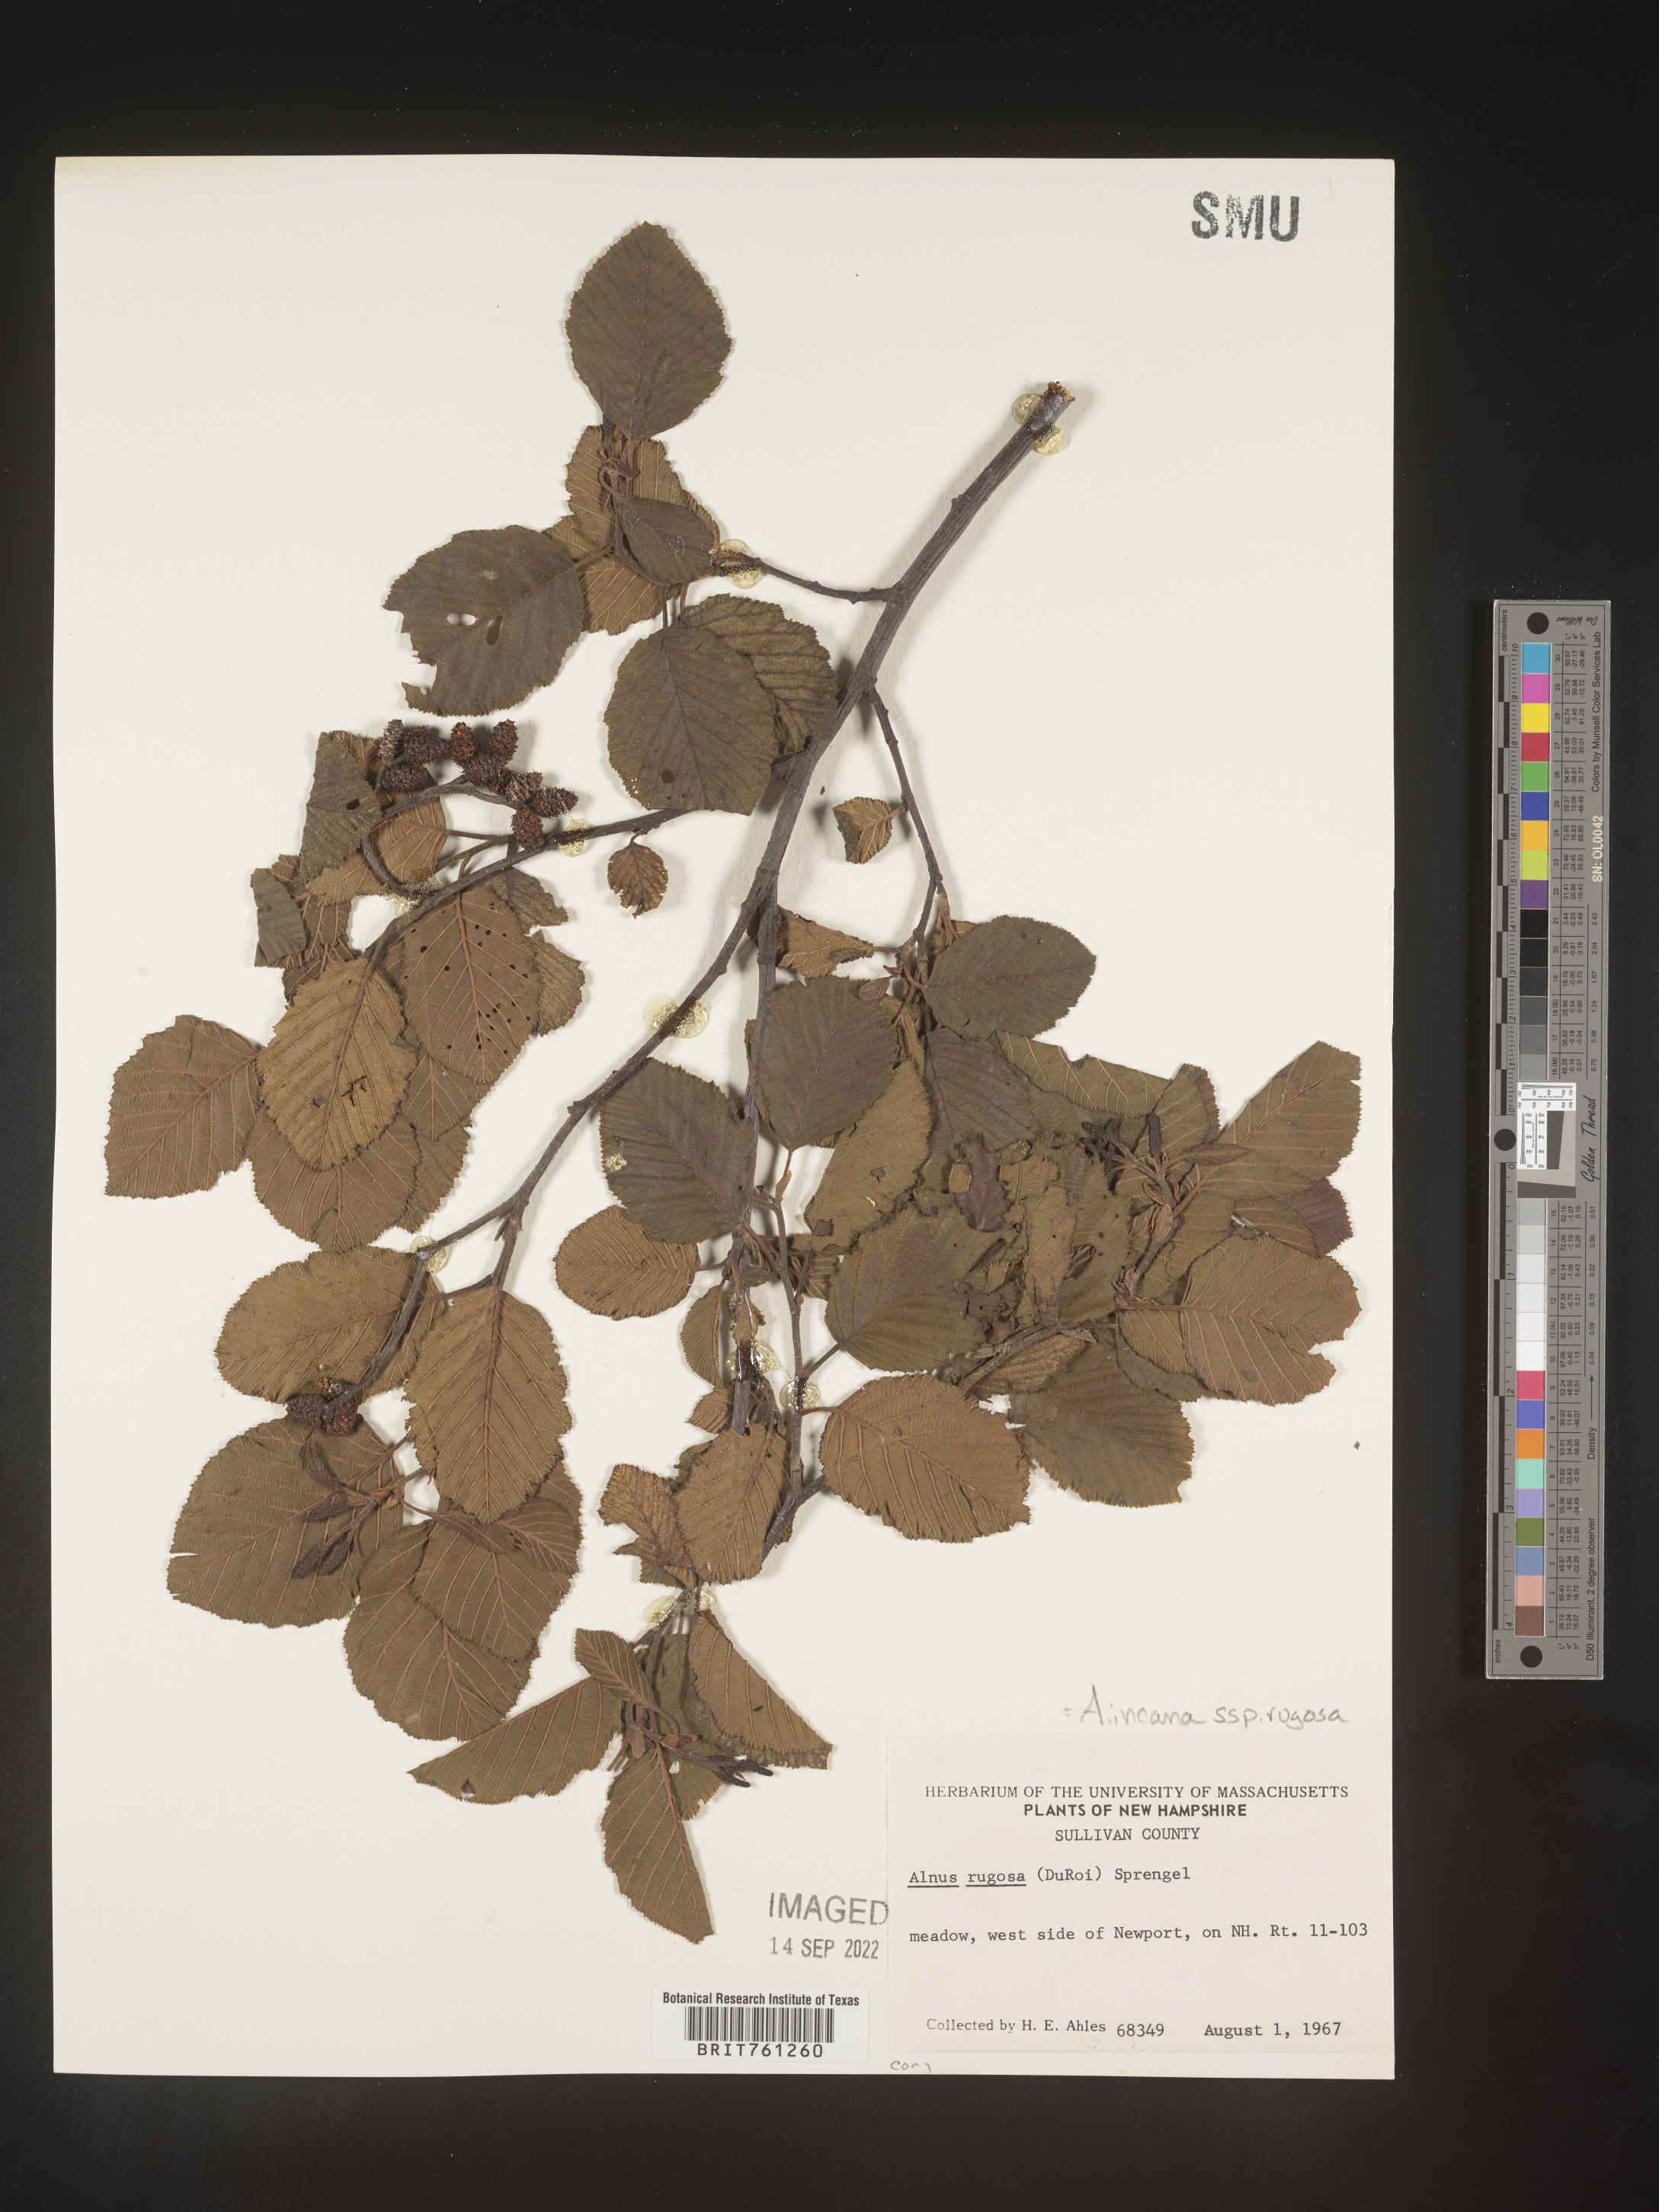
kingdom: Plantae
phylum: Tracheophyta
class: Magnoliopsida
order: Fagales
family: Betulaceae
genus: Alnus
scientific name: Alnus incana
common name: Grey alder
